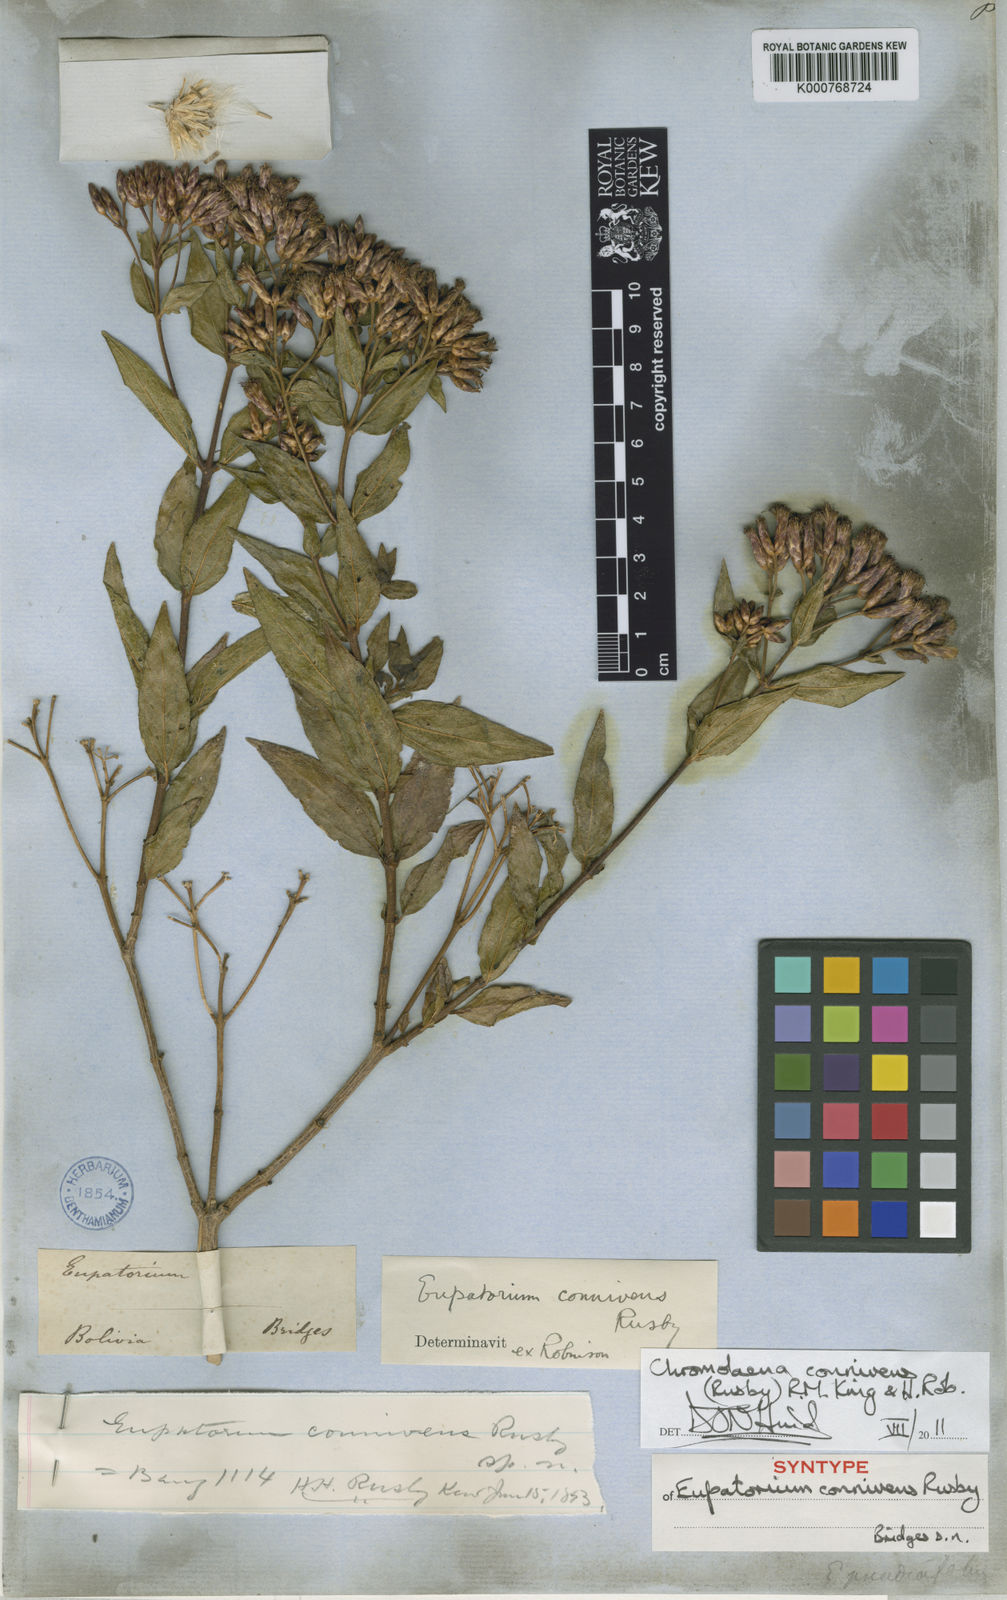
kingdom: Plantae
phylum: Tracheophyta
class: Magnoliopsida
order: Asterales
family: Asteraceae
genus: Chromolaena
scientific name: Chromolaena connivens
